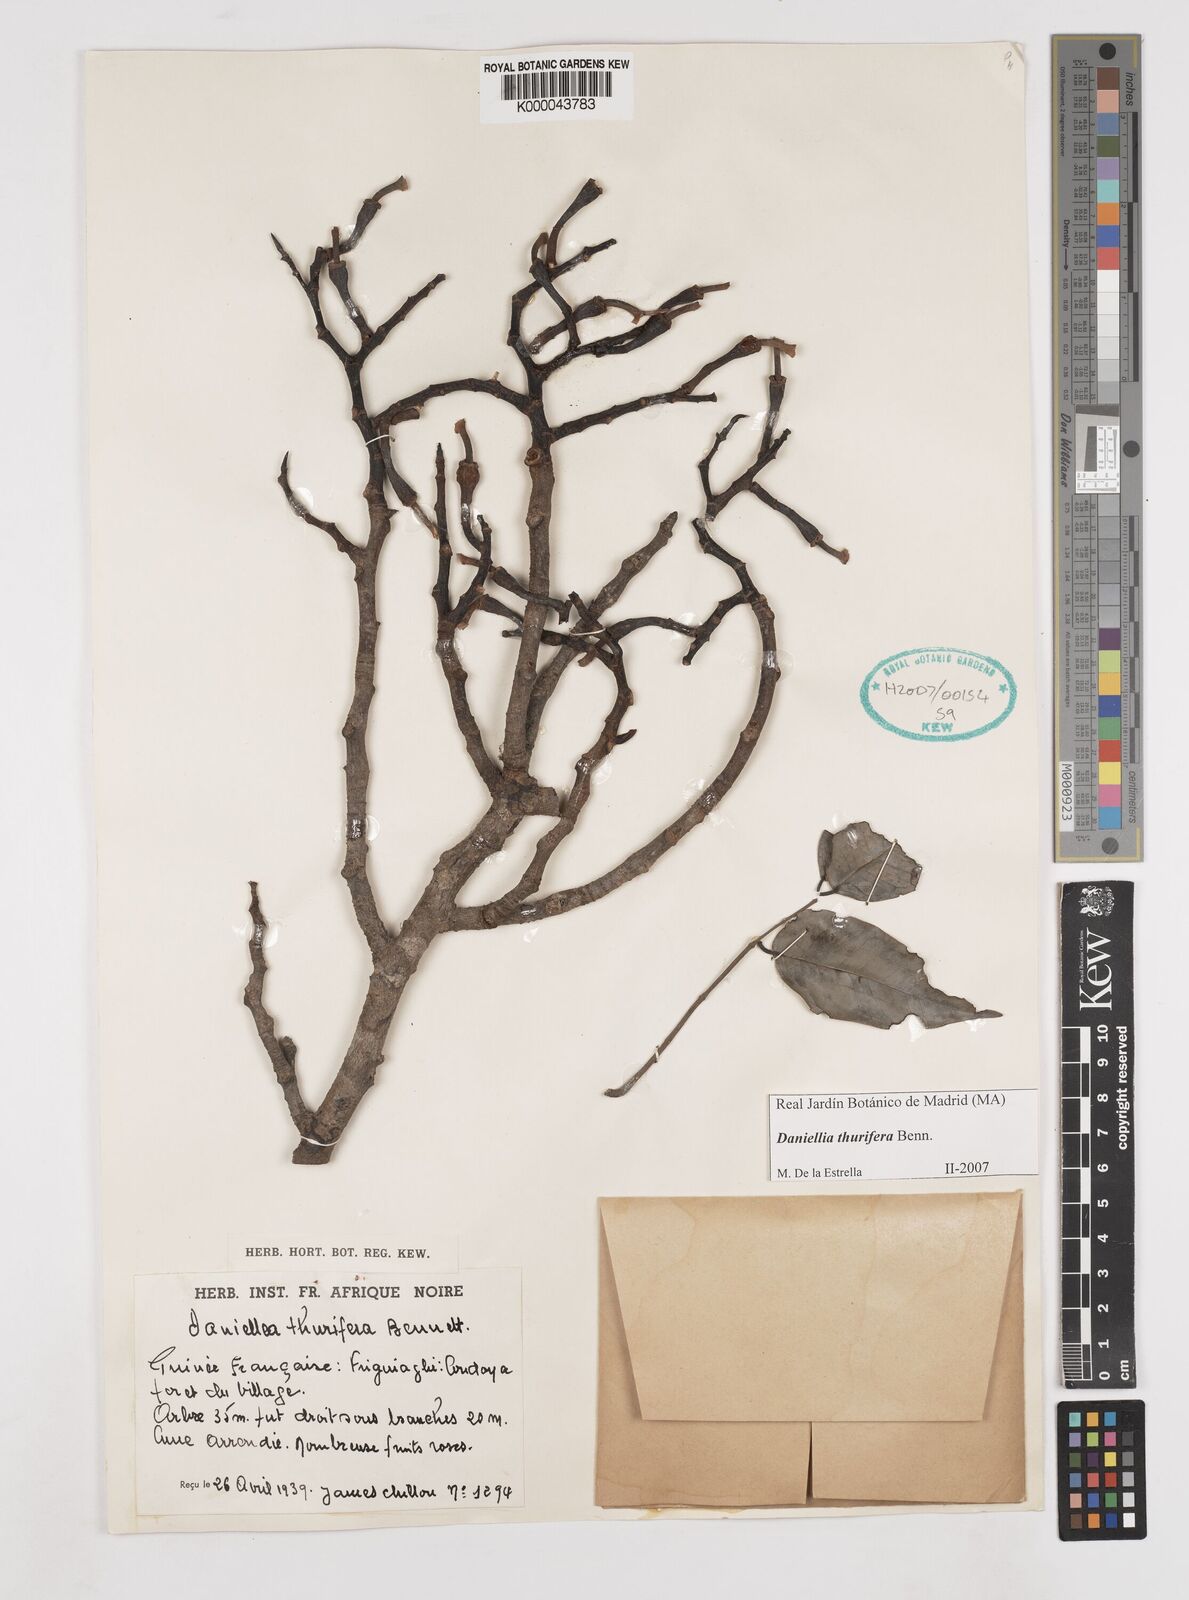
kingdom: Plantae
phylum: Tracheophyta
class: Magnoliopsida
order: Fabales
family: Fabaceae
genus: Daniellia
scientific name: Daniellia thurifera
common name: Sudan copal
